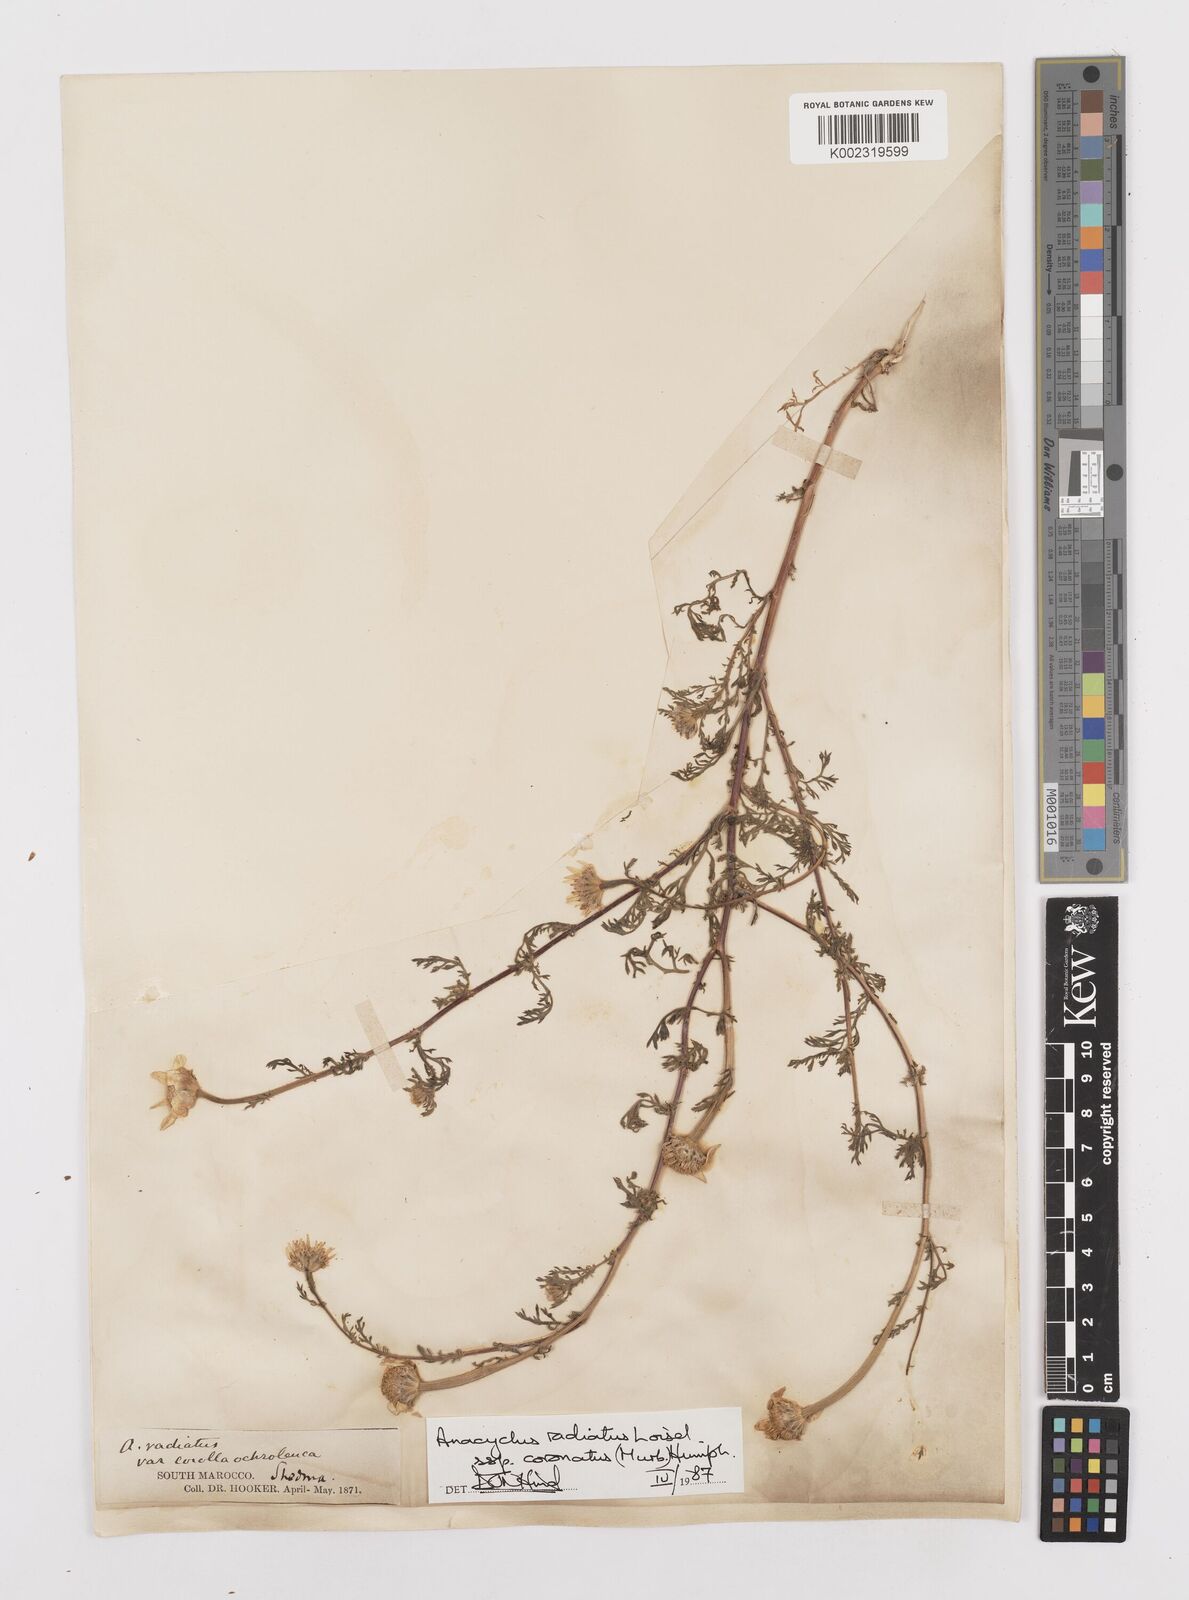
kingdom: Plantae
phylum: Tracheophyta
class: Magnoliopsida
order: Asterales
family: Asteraceae
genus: Anacyclus
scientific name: Anacyclus radiatus
